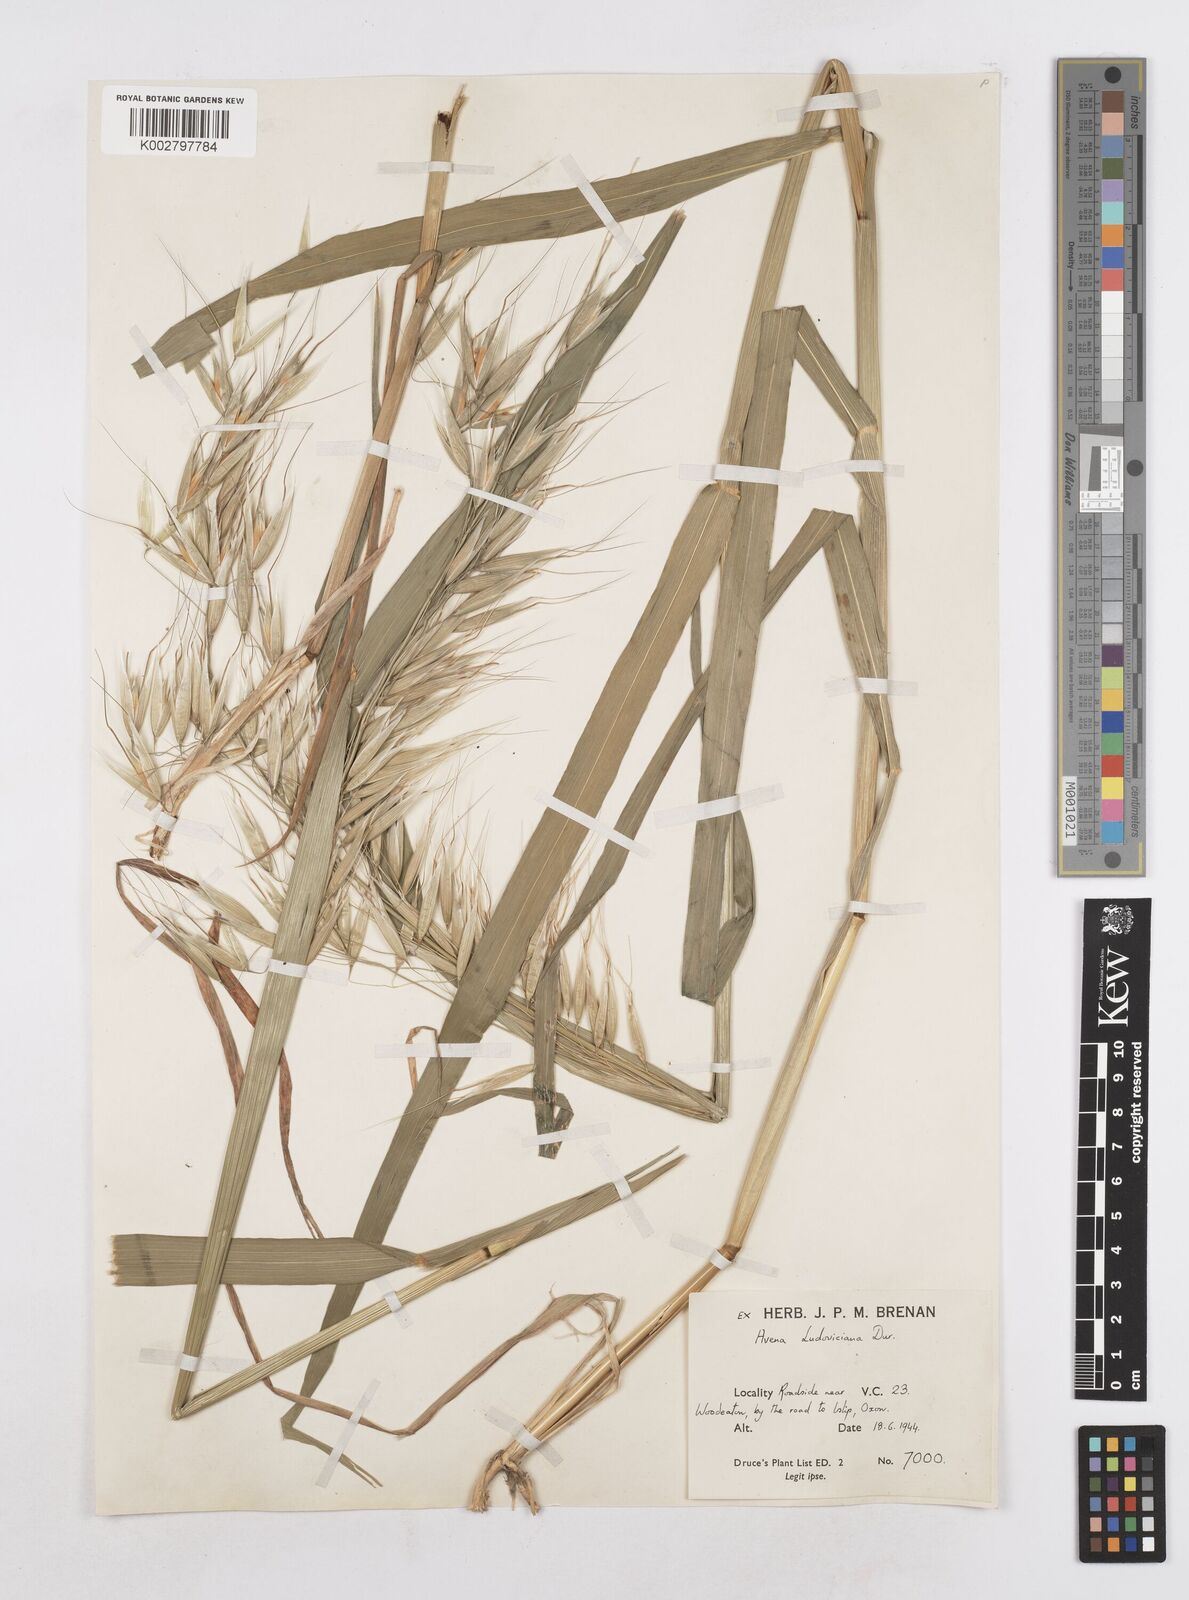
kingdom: Plantae
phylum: Tracheophyta
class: Liliopsida
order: Poales
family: Poaceae
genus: Avena
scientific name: Avena sterilis
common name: Animated oat
